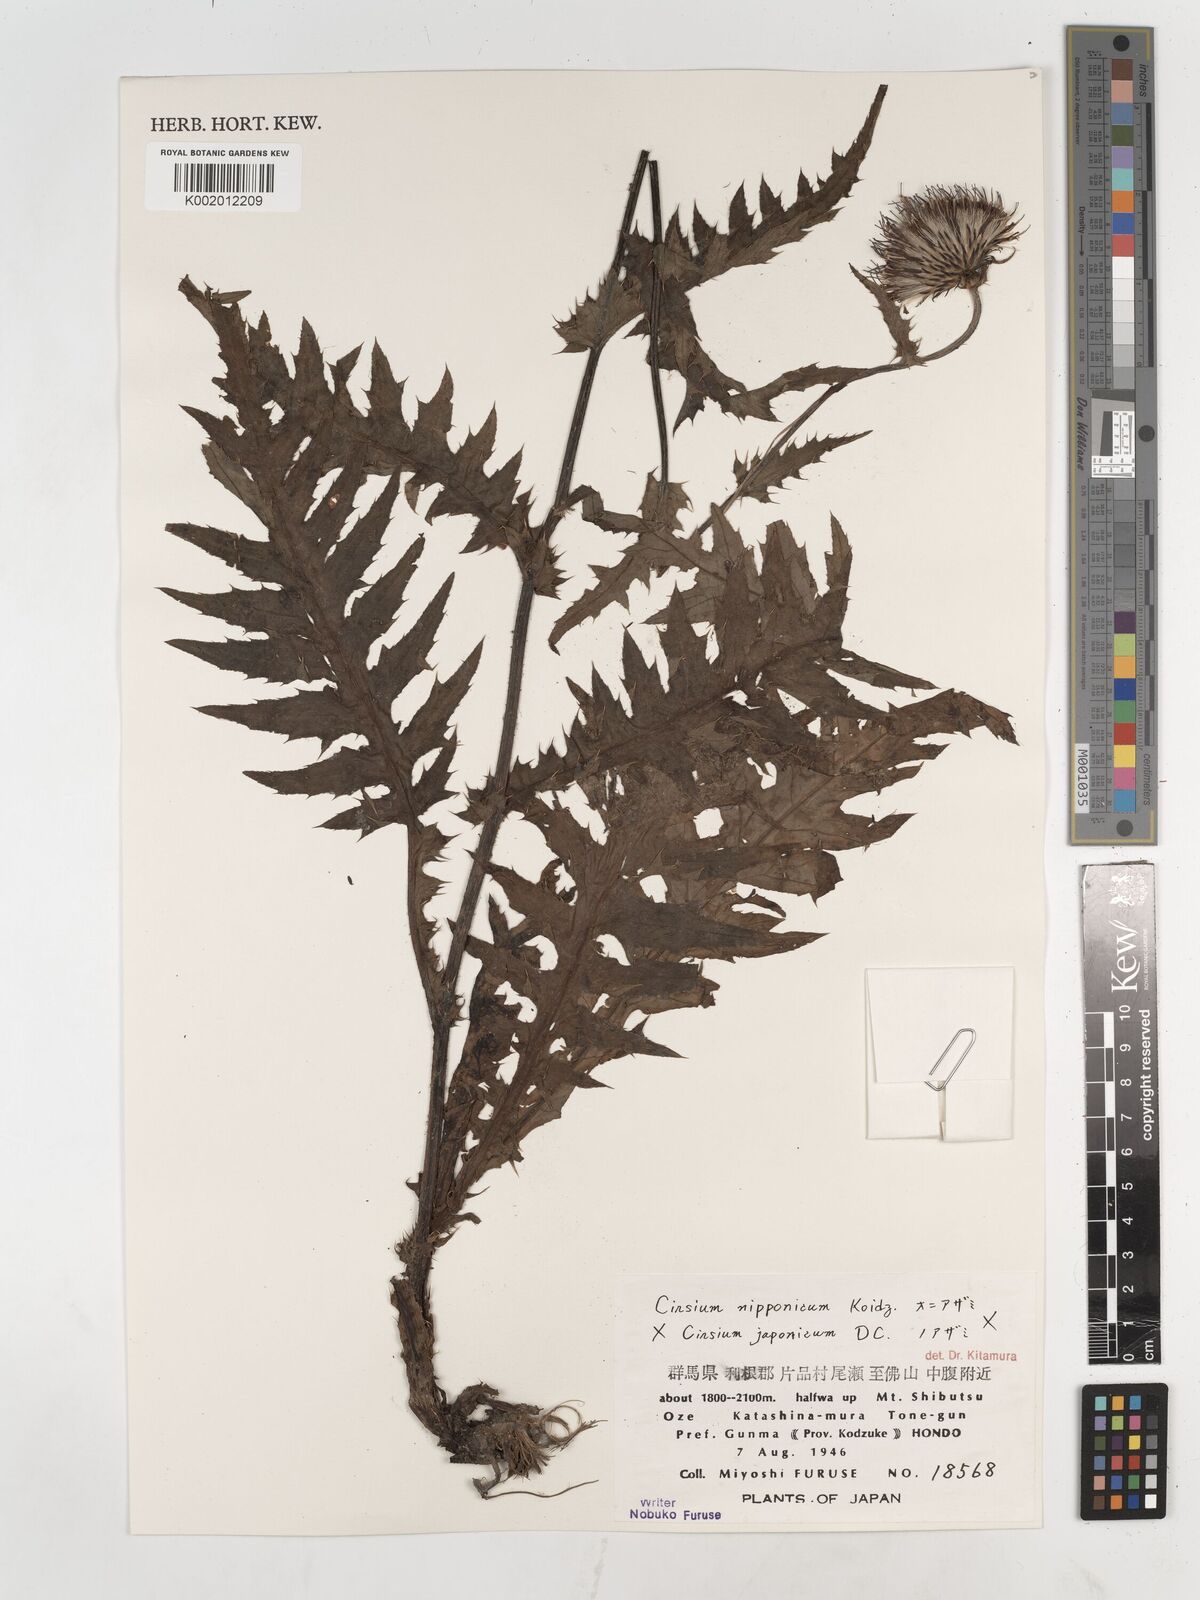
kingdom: Plantae
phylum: Tracheophyta
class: Magnoliopsida
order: Asterales
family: Asteraceae
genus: Cirsium
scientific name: Cirsium nipponicum
